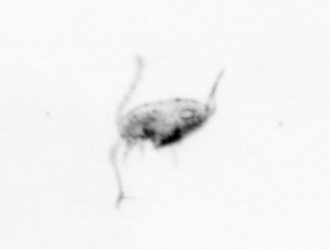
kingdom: Animalia
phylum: Arthropoda
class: Copepoda
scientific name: Copepoda
